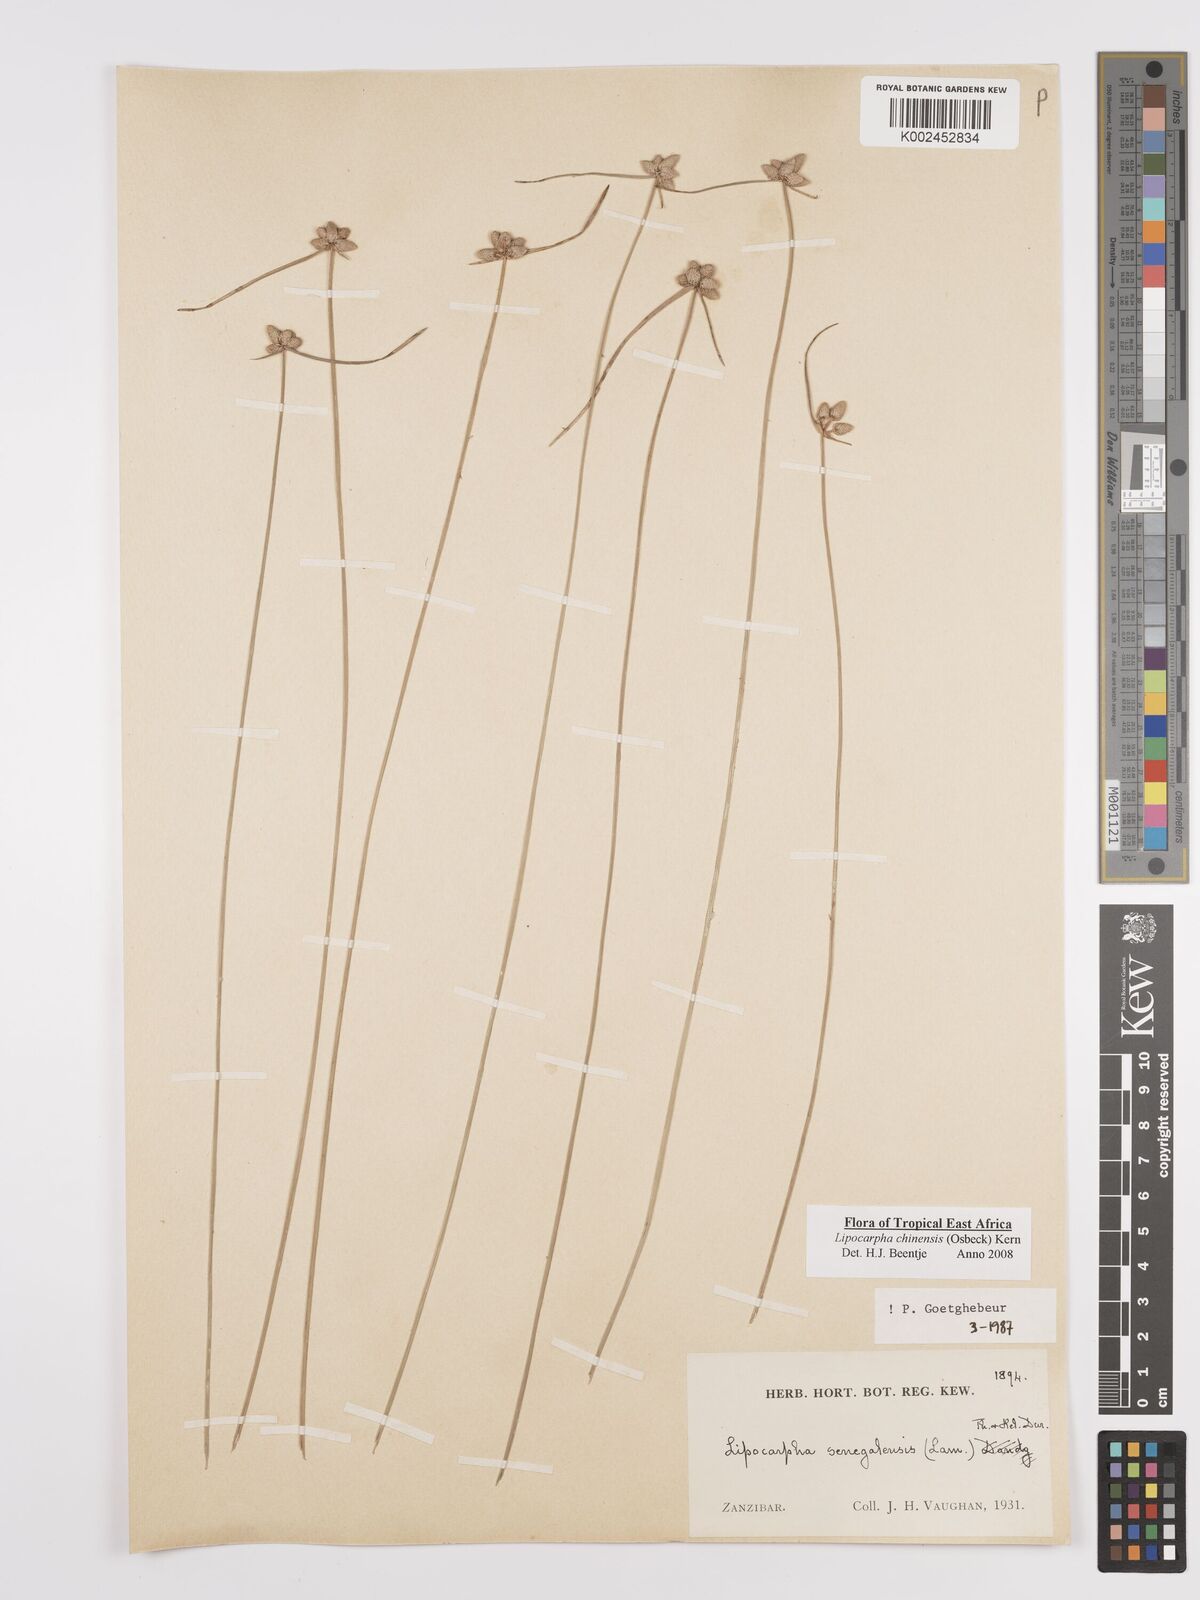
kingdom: Plantae
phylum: Tracheophyta
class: Liliopsida
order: Poales
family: Cyperaceae
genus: Cyperus
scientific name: Cyperus
